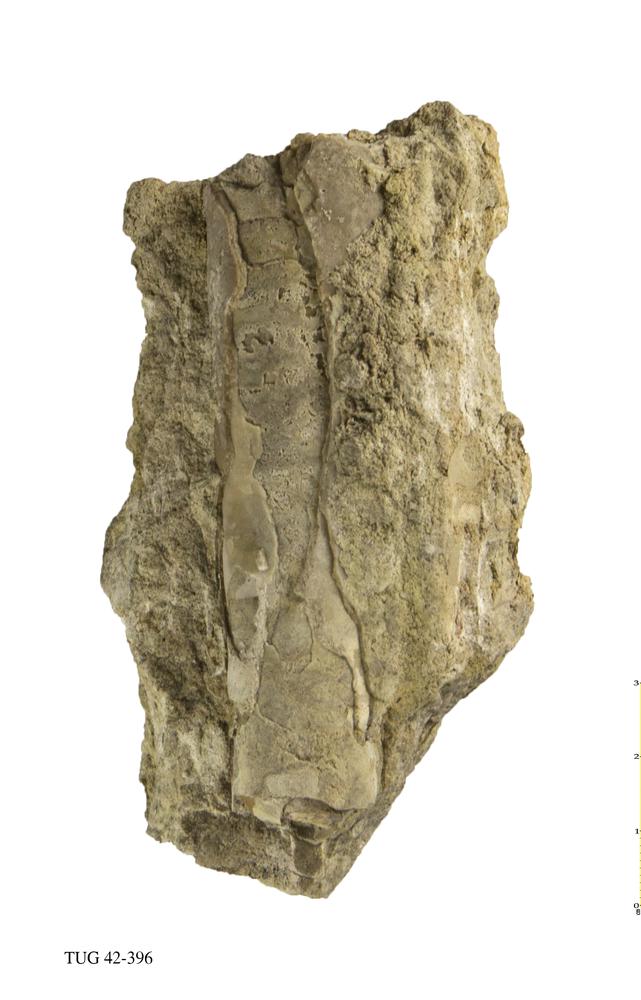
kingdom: Animalia
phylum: Mollusca
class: Cephalopoda
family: Endoceratidae
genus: Proterovaginoceras
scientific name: Proterovaginoceras Endoceras incognitum
